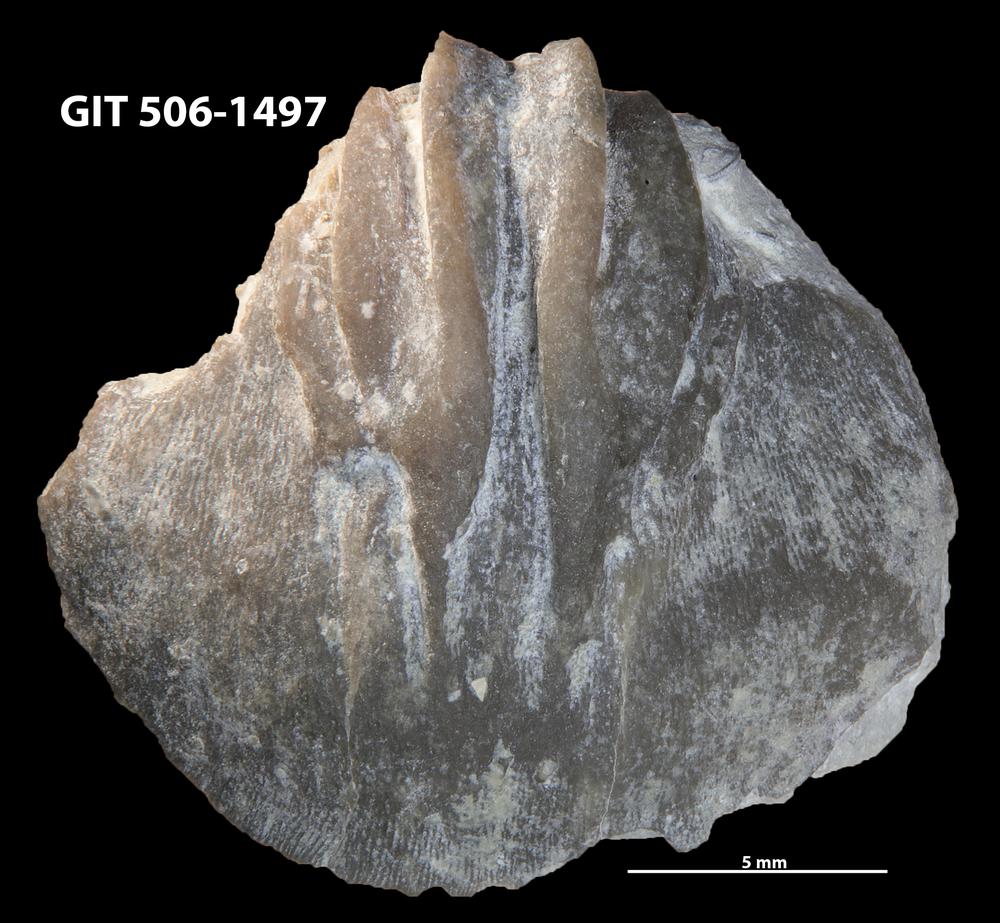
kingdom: Animalia
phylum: Brachiopoda
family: Oldhaminidae
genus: Eoplectodonta
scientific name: Eoplectodonta duvalii
